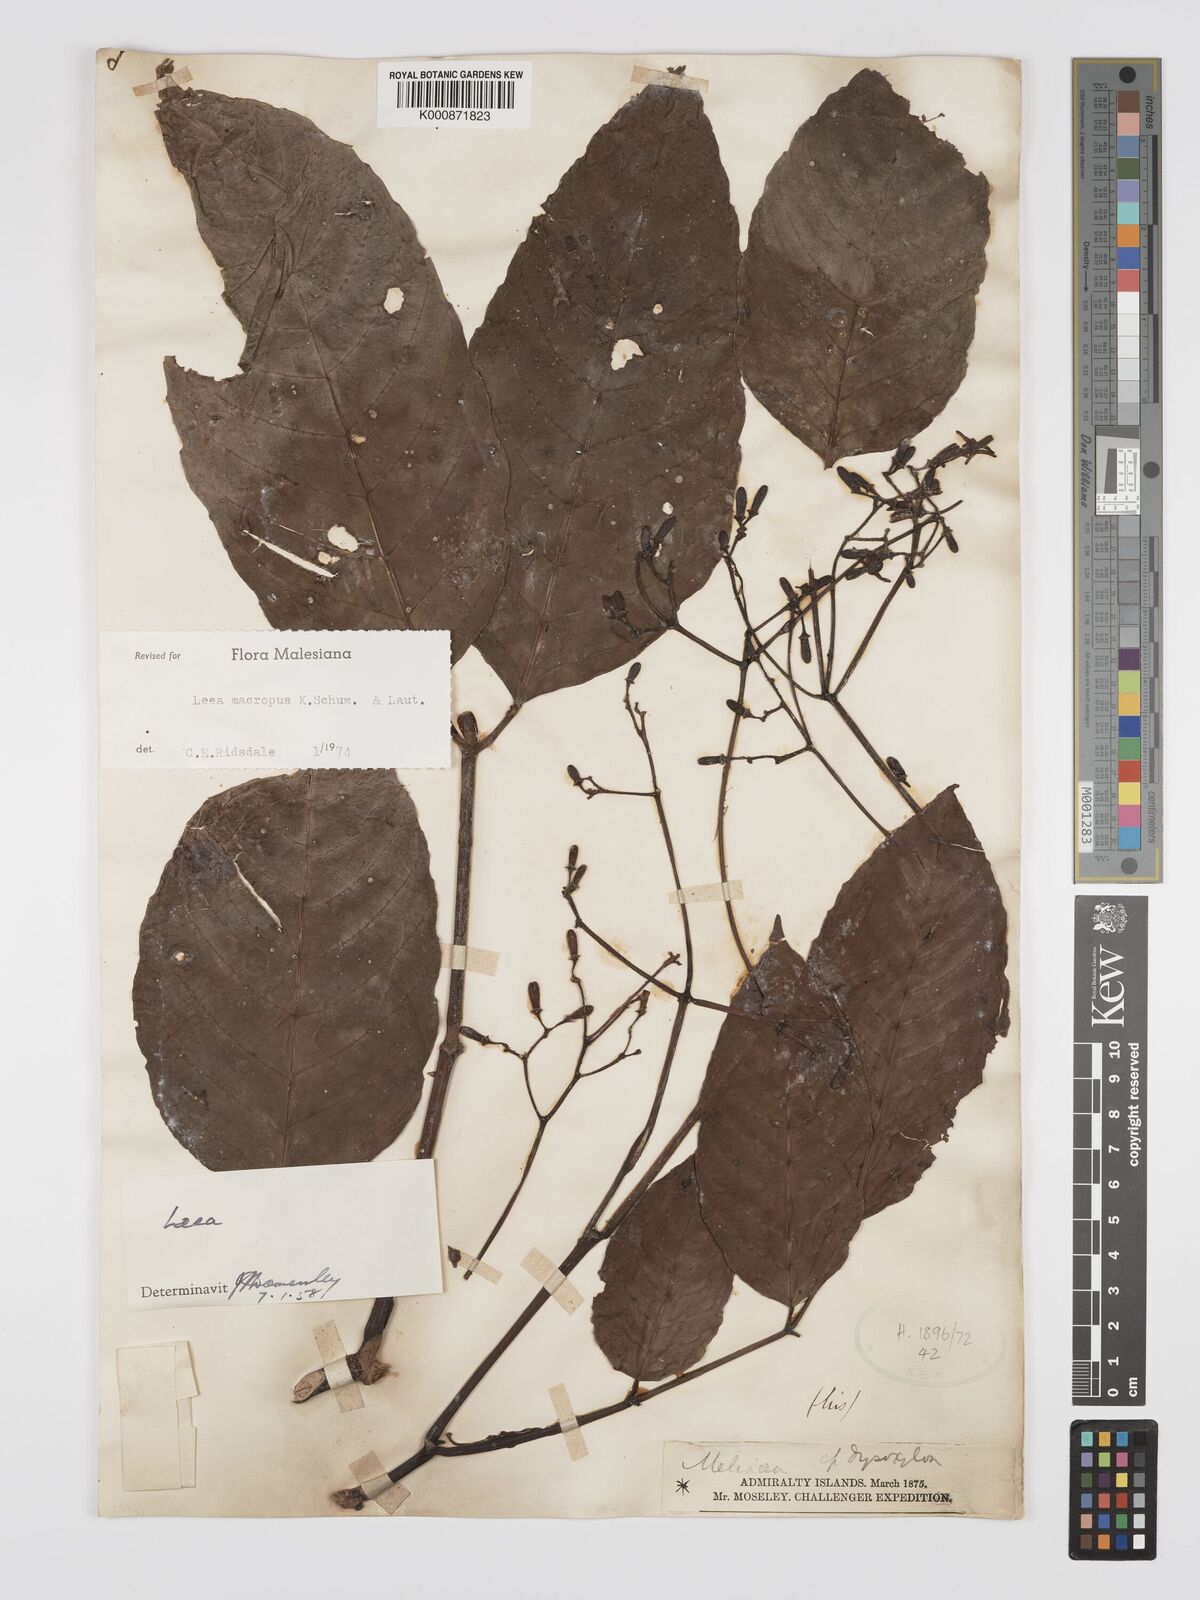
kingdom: Plantae
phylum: Tracheophyta
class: Magnoliopsida
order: Vitales
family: Vitaceae
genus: Leea
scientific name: Leea macropus
